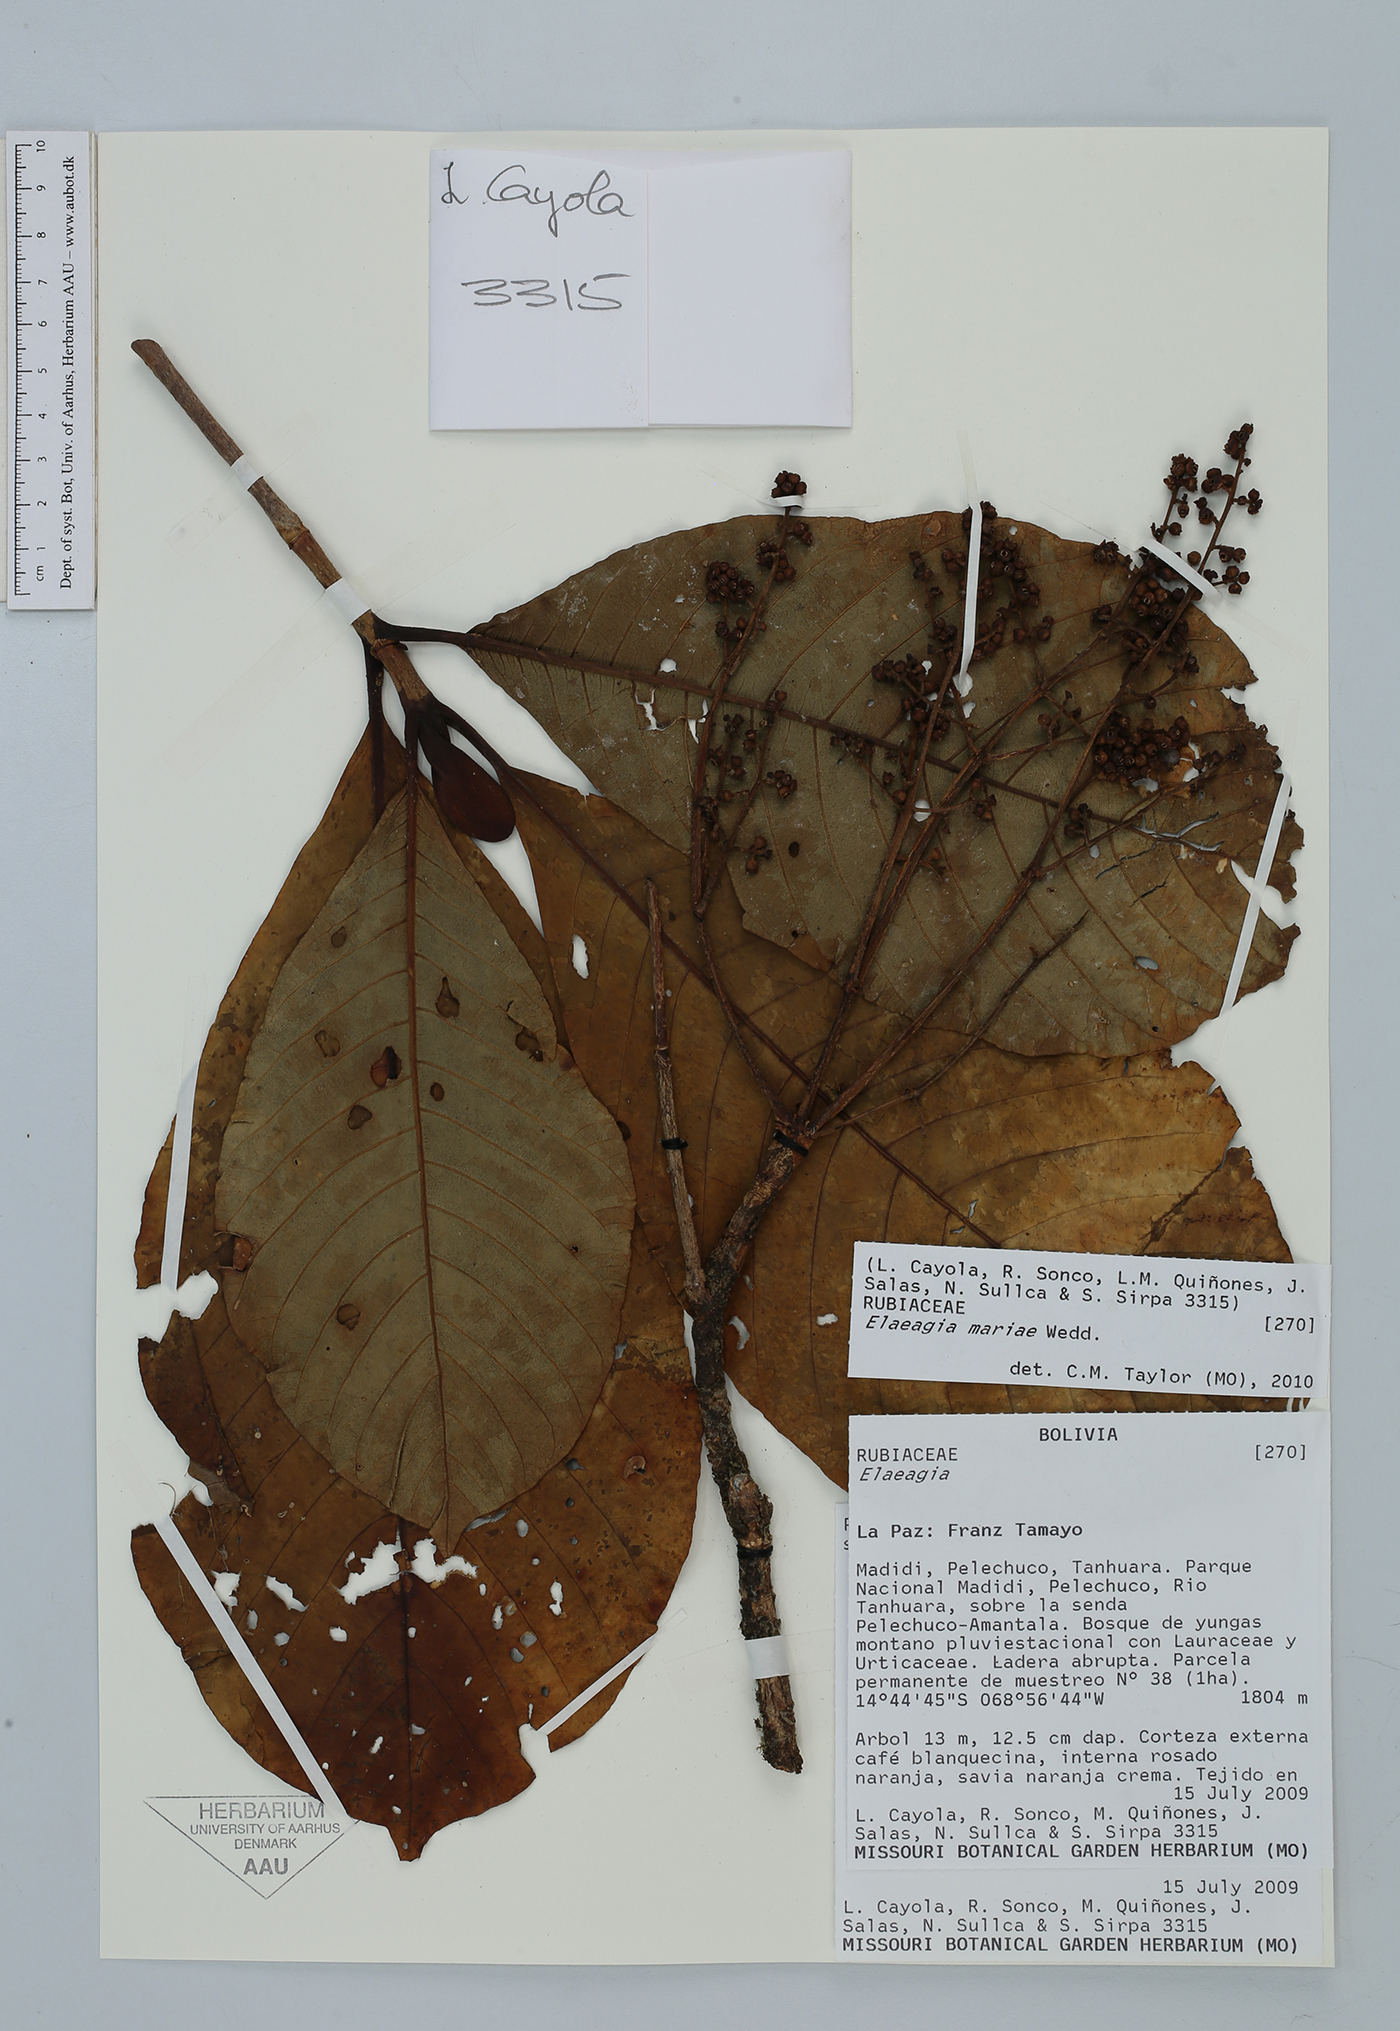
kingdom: Plantae
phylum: Tracheophyta
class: Magnoliopsida
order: Gentianales
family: Rubiaceae
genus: Elaeagia
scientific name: Elaeagia
